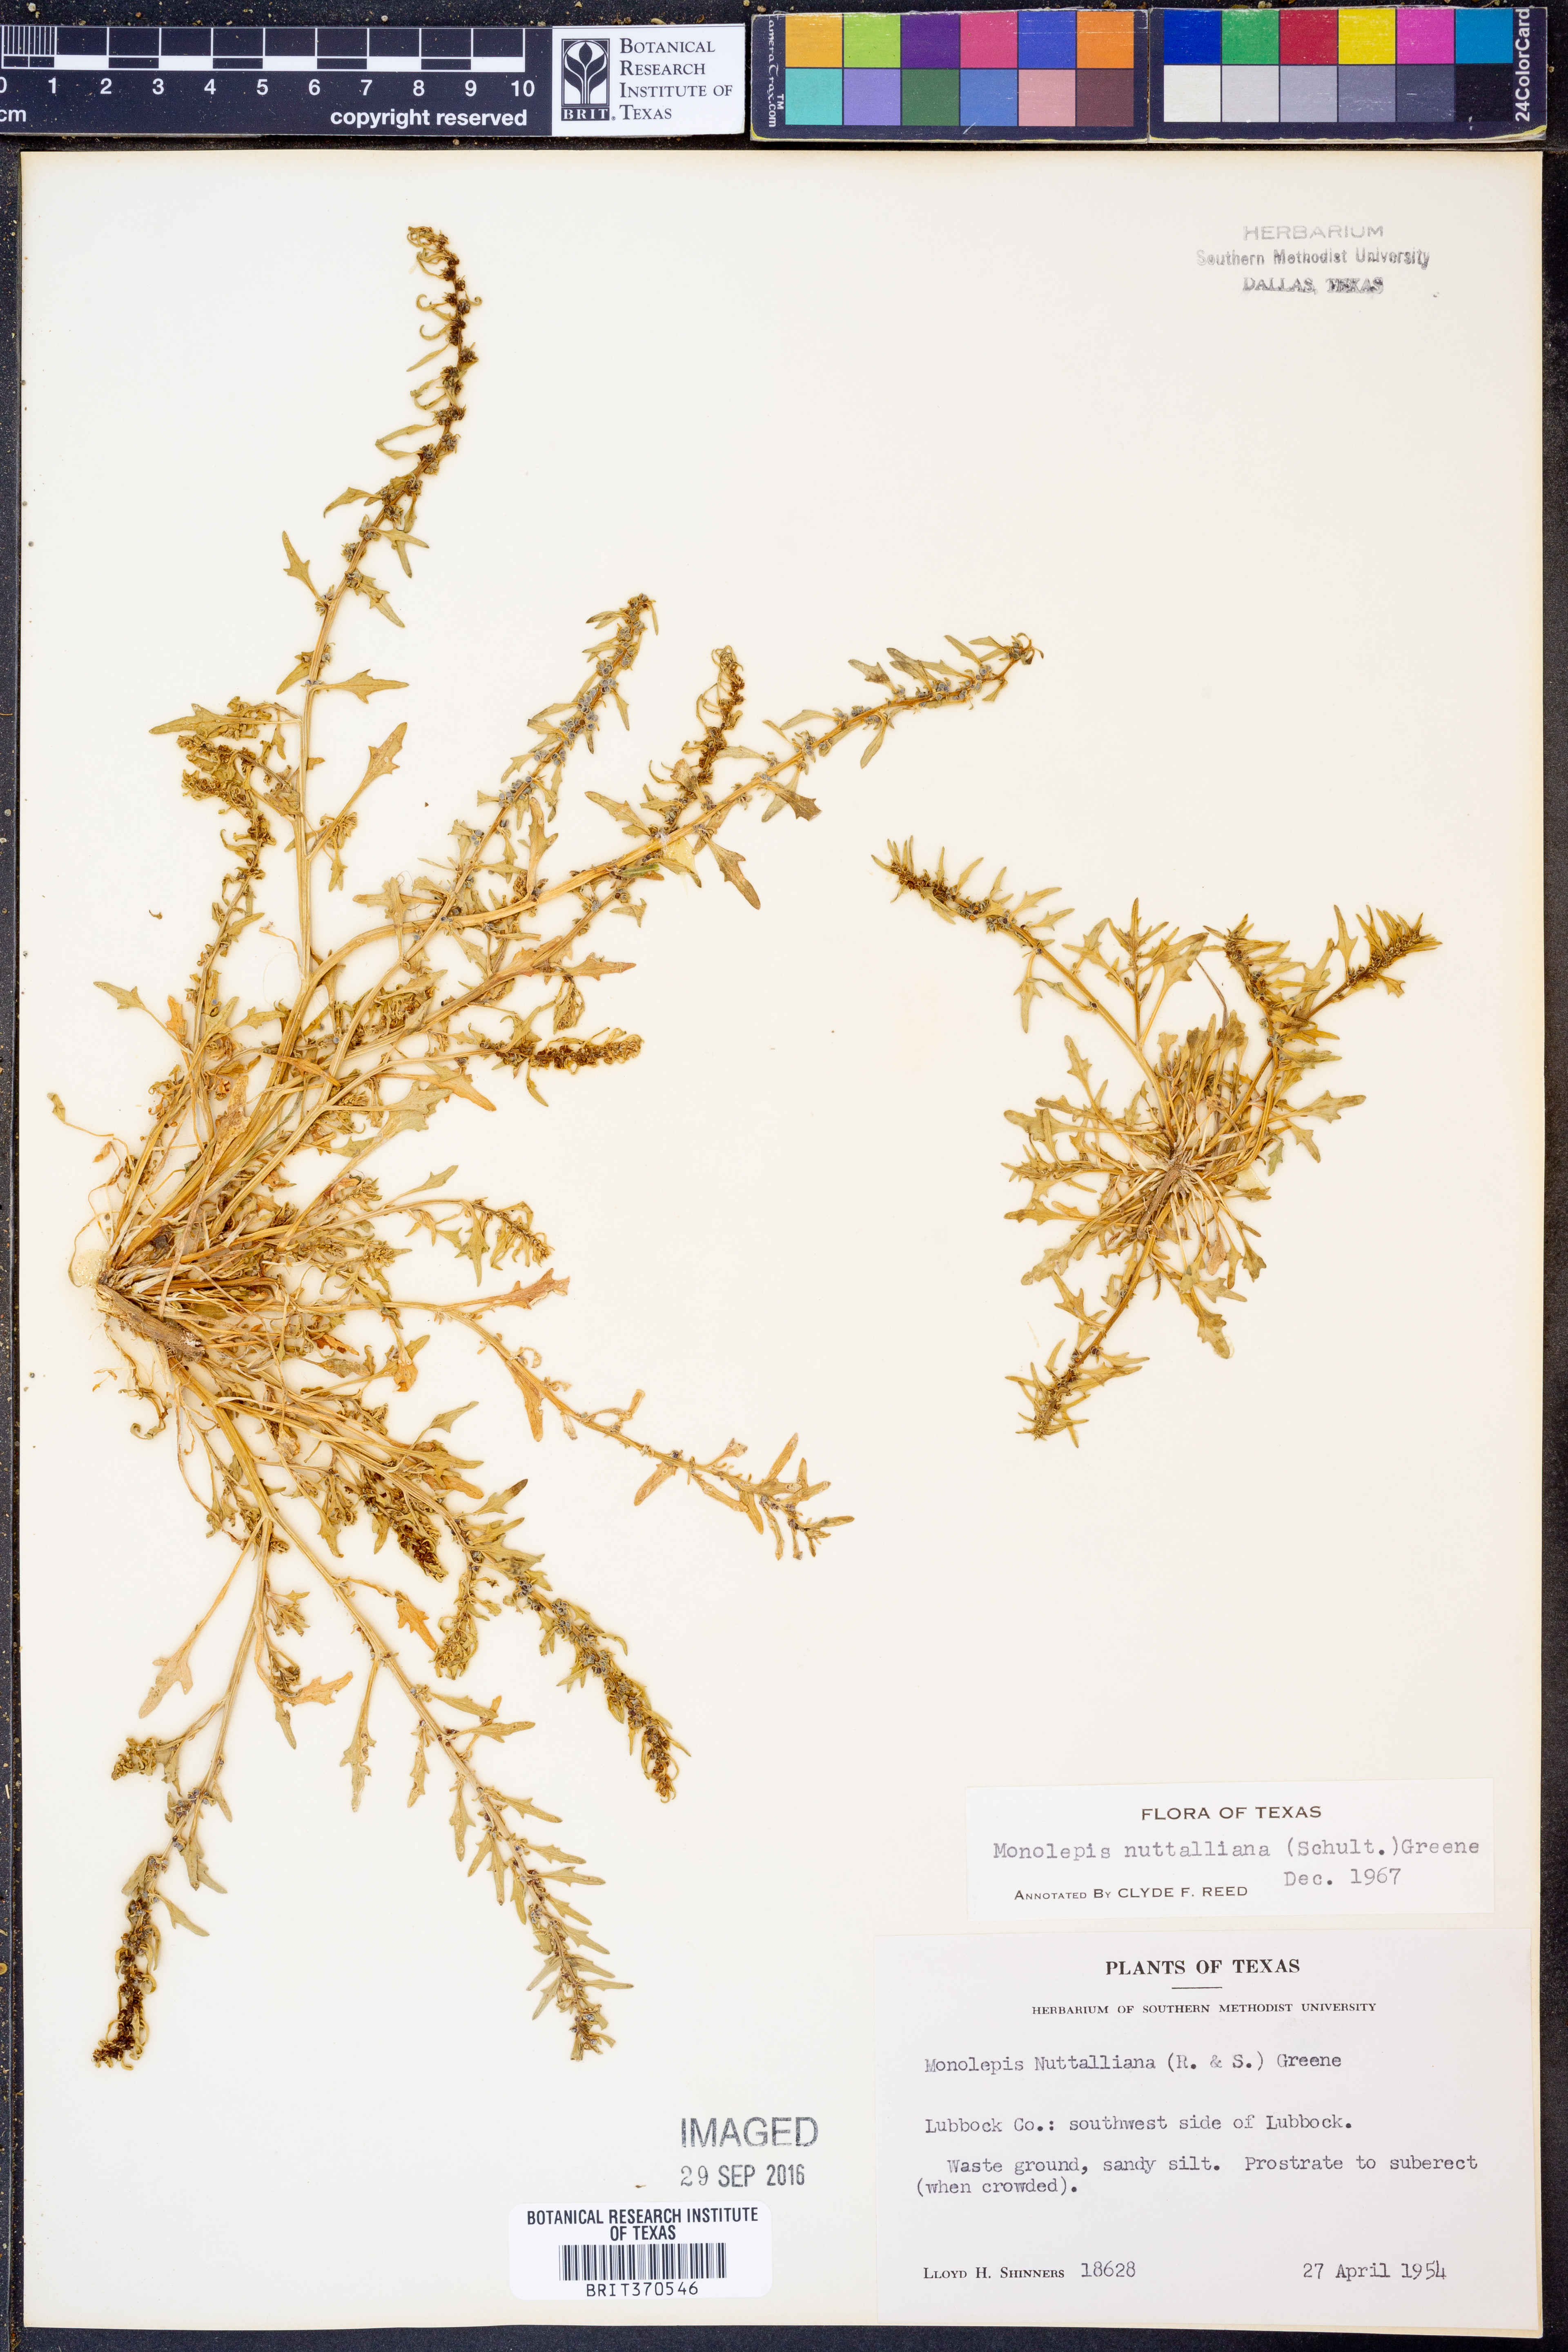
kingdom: Plantae
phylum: Tracheophyta
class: Magnoliopsida
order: Caryophyllales
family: Amaranthaceae
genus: Blitum
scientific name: Blitum nuttallianum
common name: Poverty-weed
